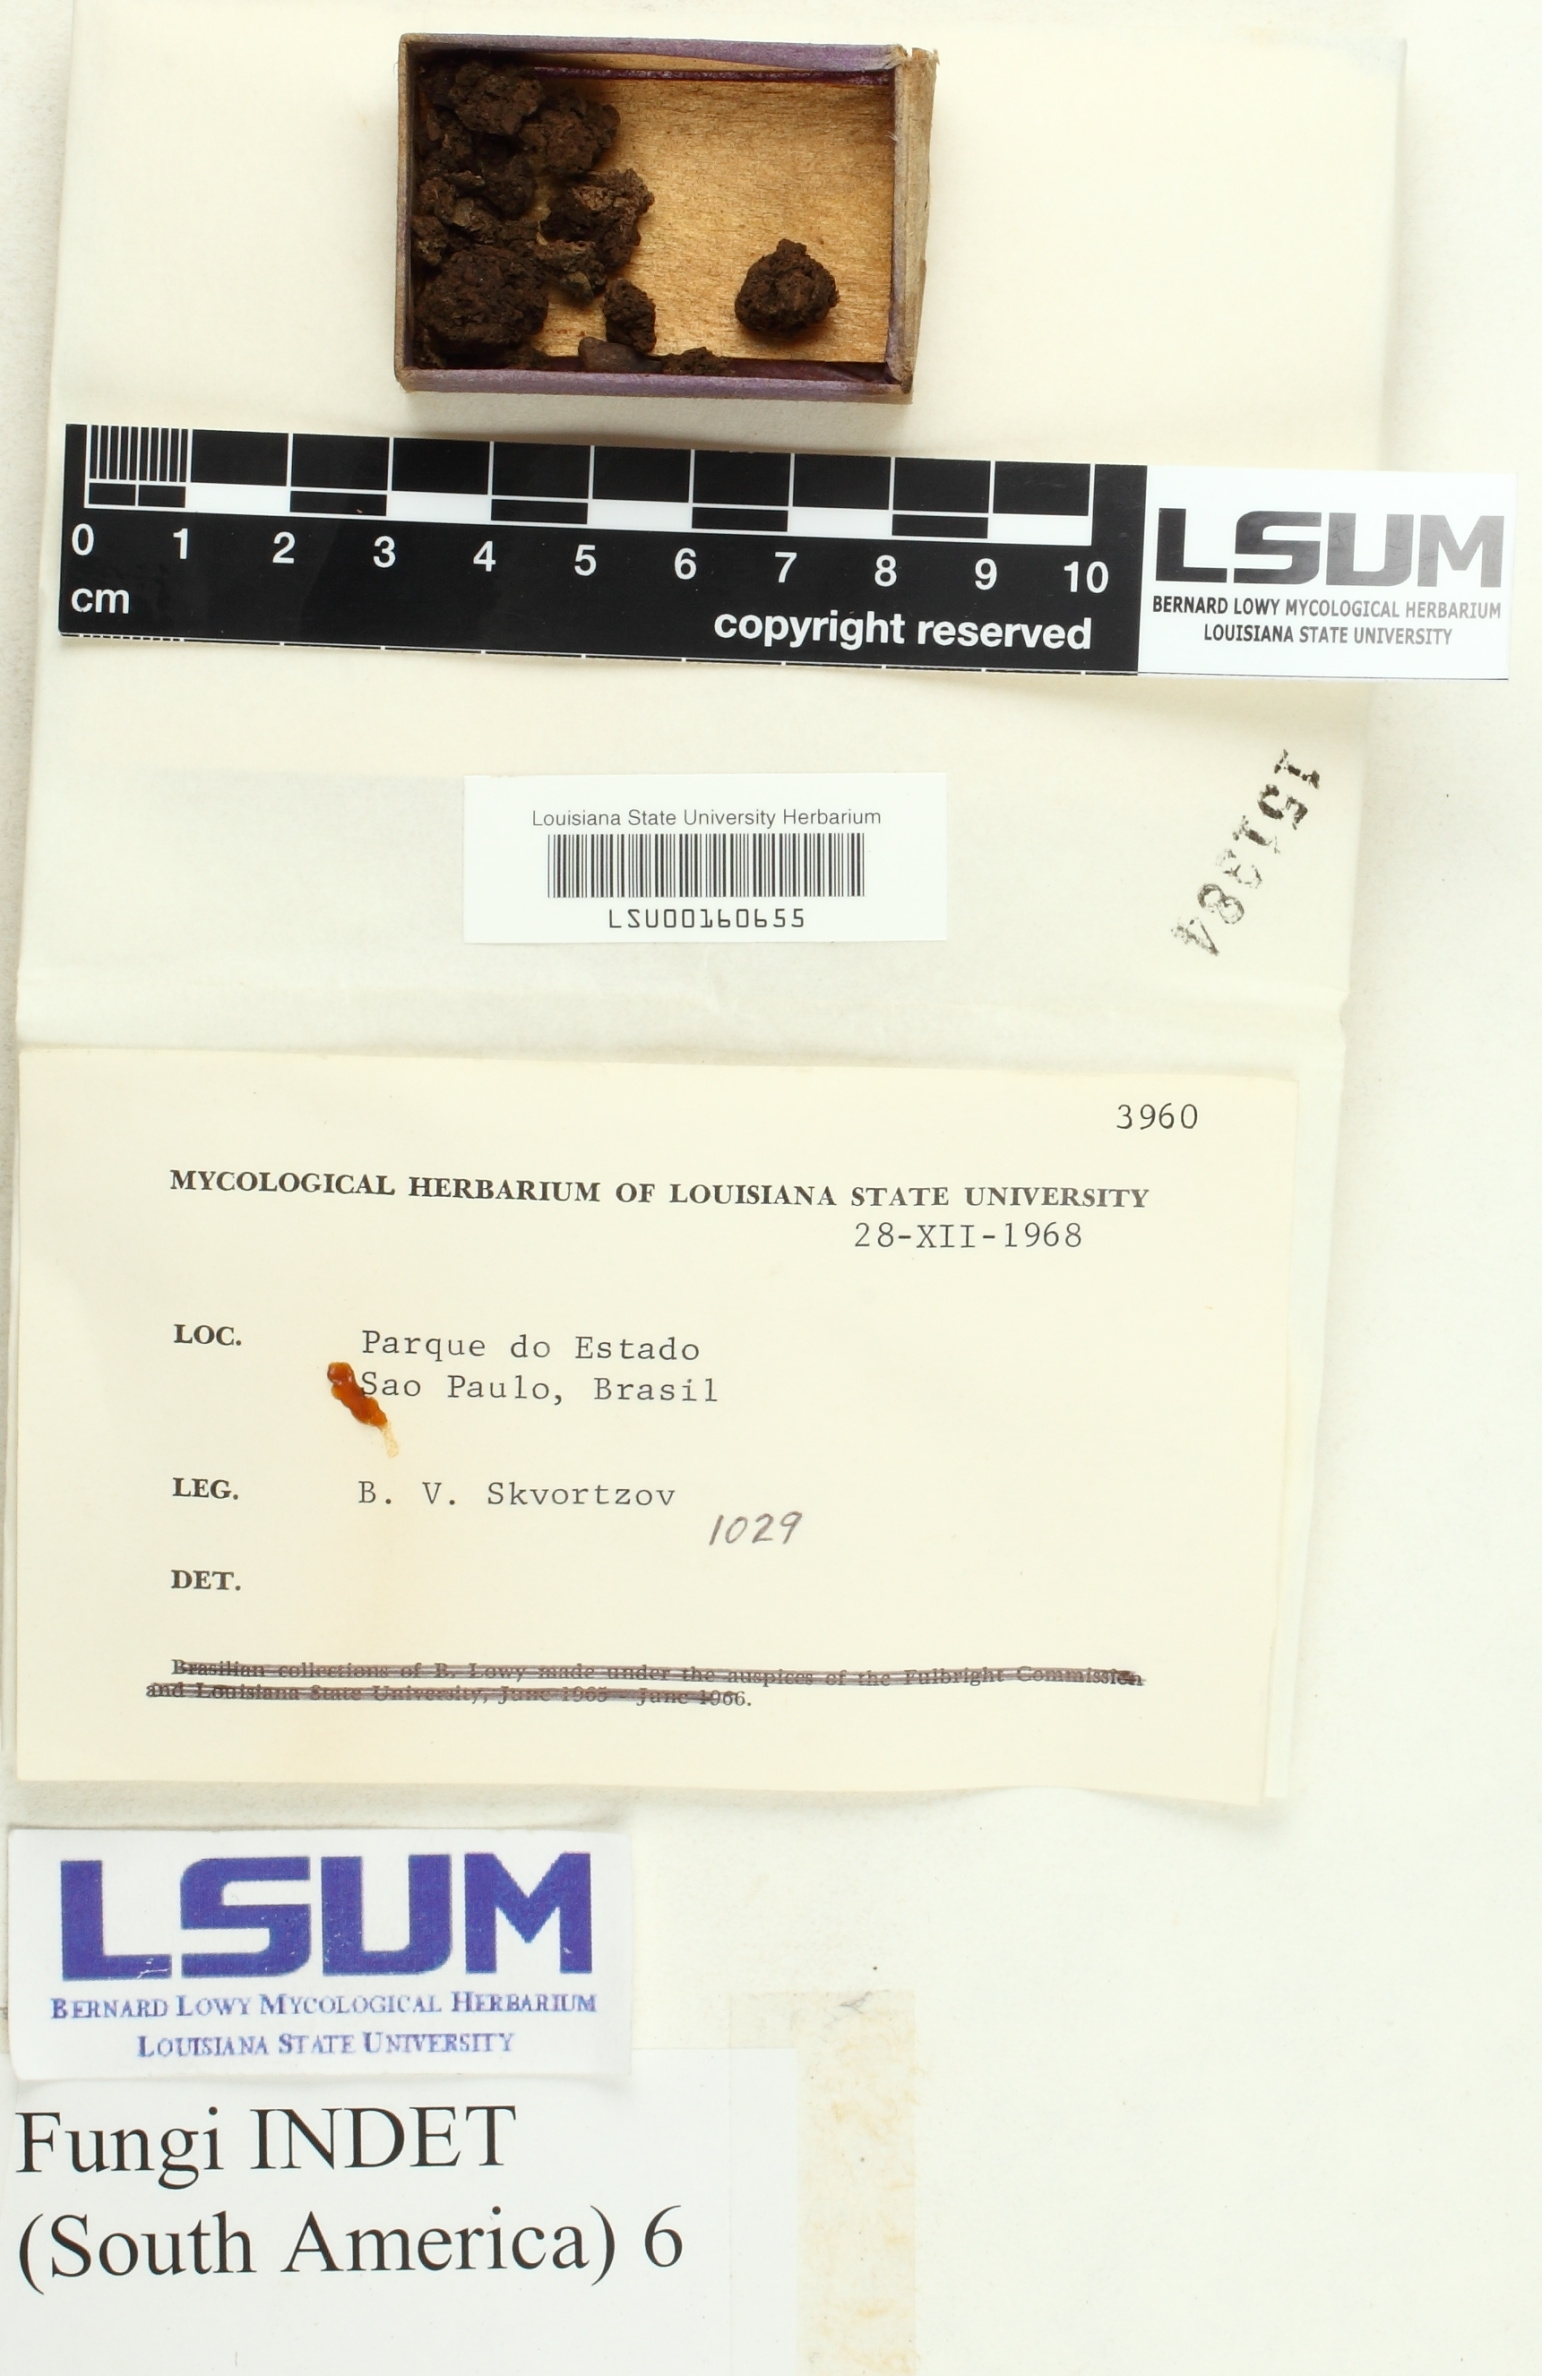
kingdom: Fungi
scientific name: Fungi
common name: Fungi
